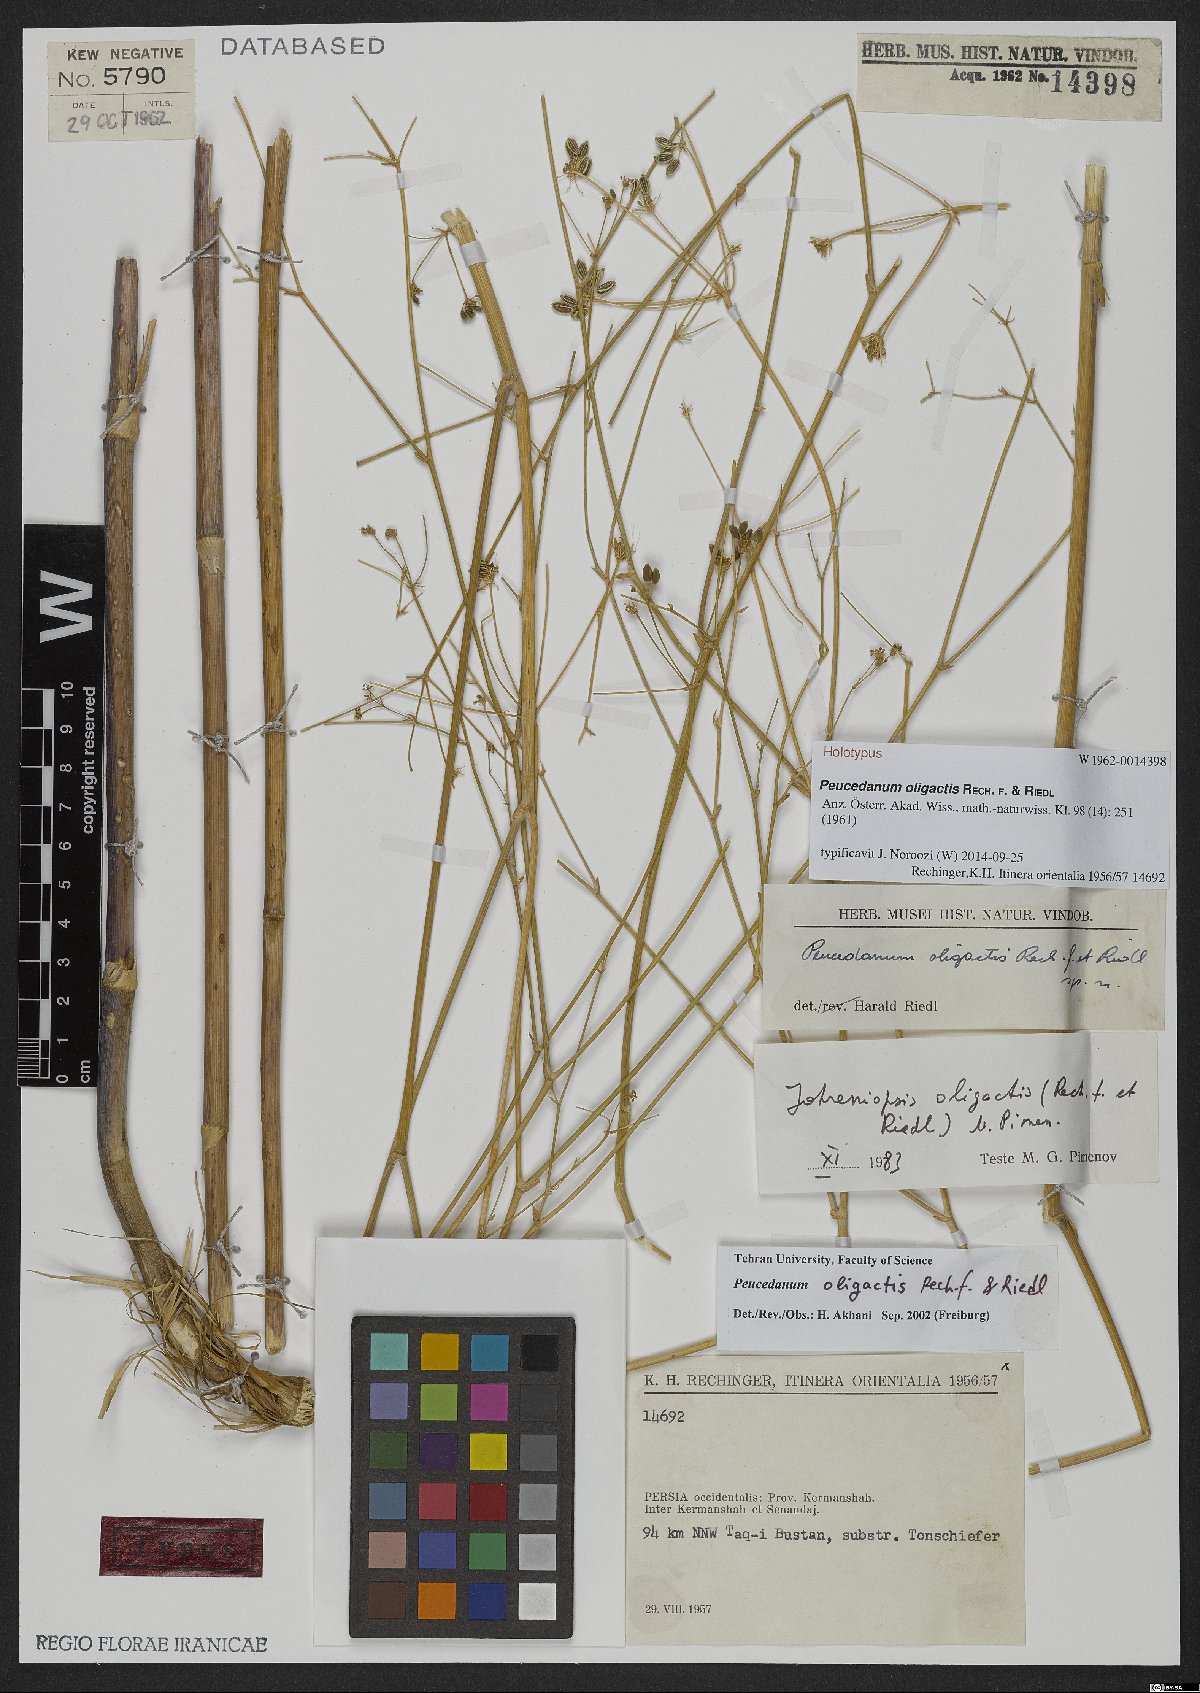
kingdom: Plantae
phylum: Tracheophyta
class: Magnoliopsida
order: Apiales
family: Apiaceae
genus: Zeravschania
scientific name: Zeravschania pauciradiata
